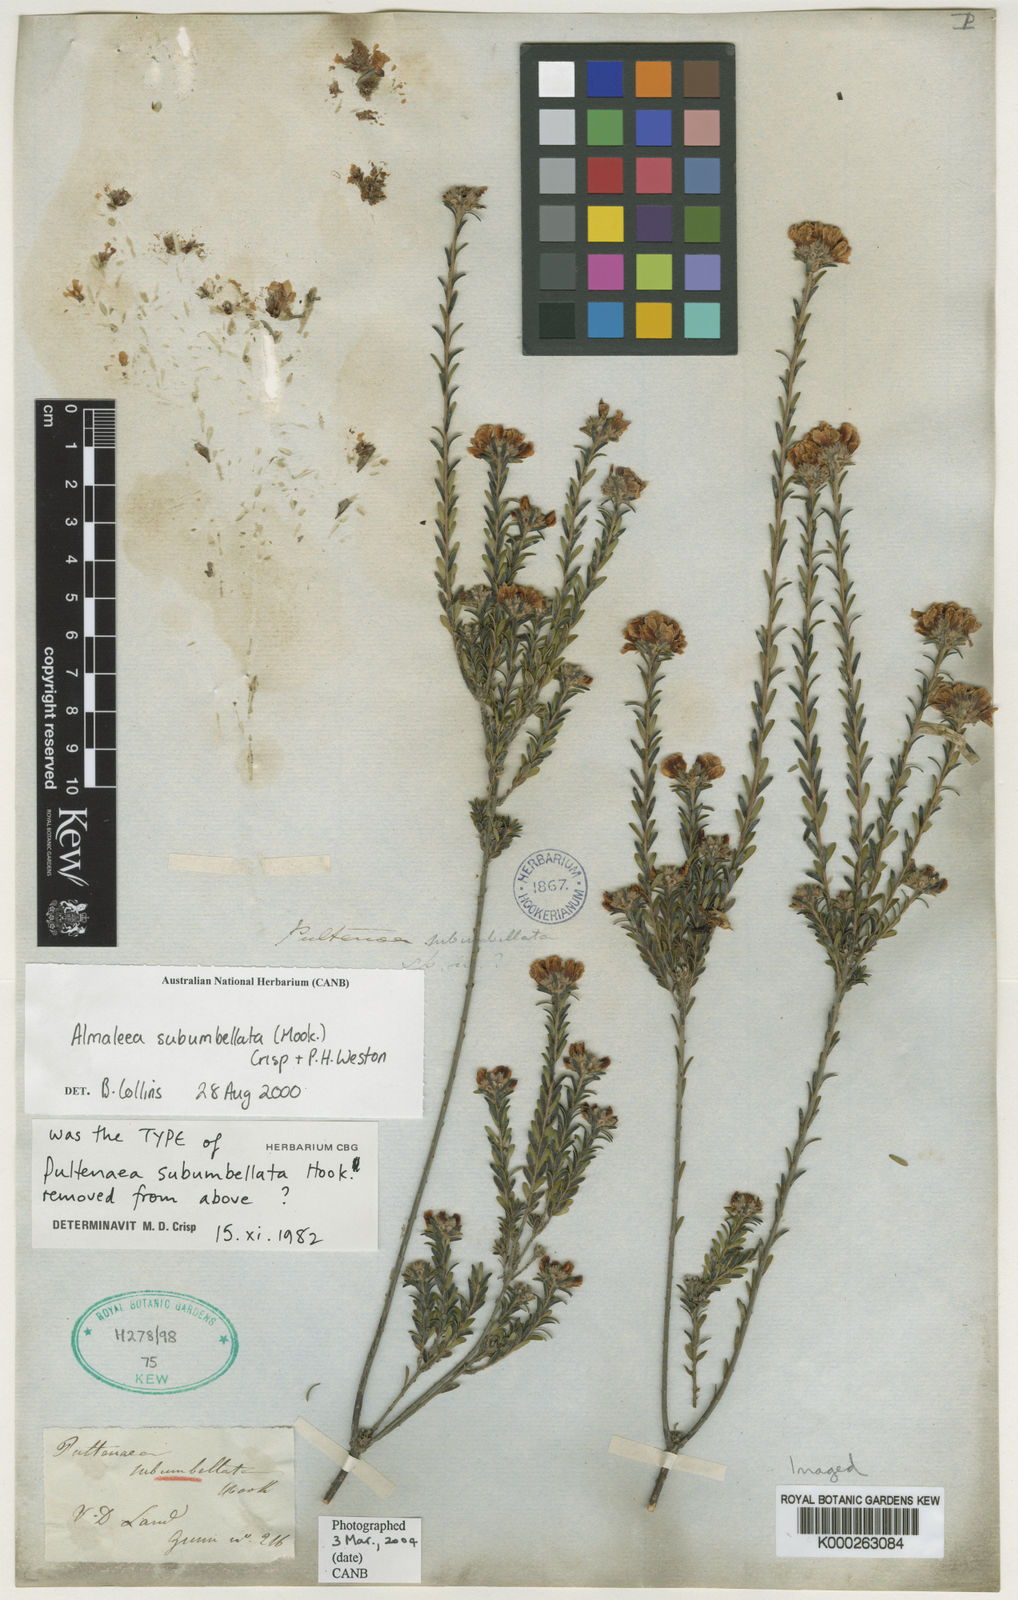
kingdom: Plantae
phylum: Tracheophyta
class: Magnoliopsida
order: Fabales
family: Fabaceae
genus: Pultenaea
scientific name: Pultenaea
